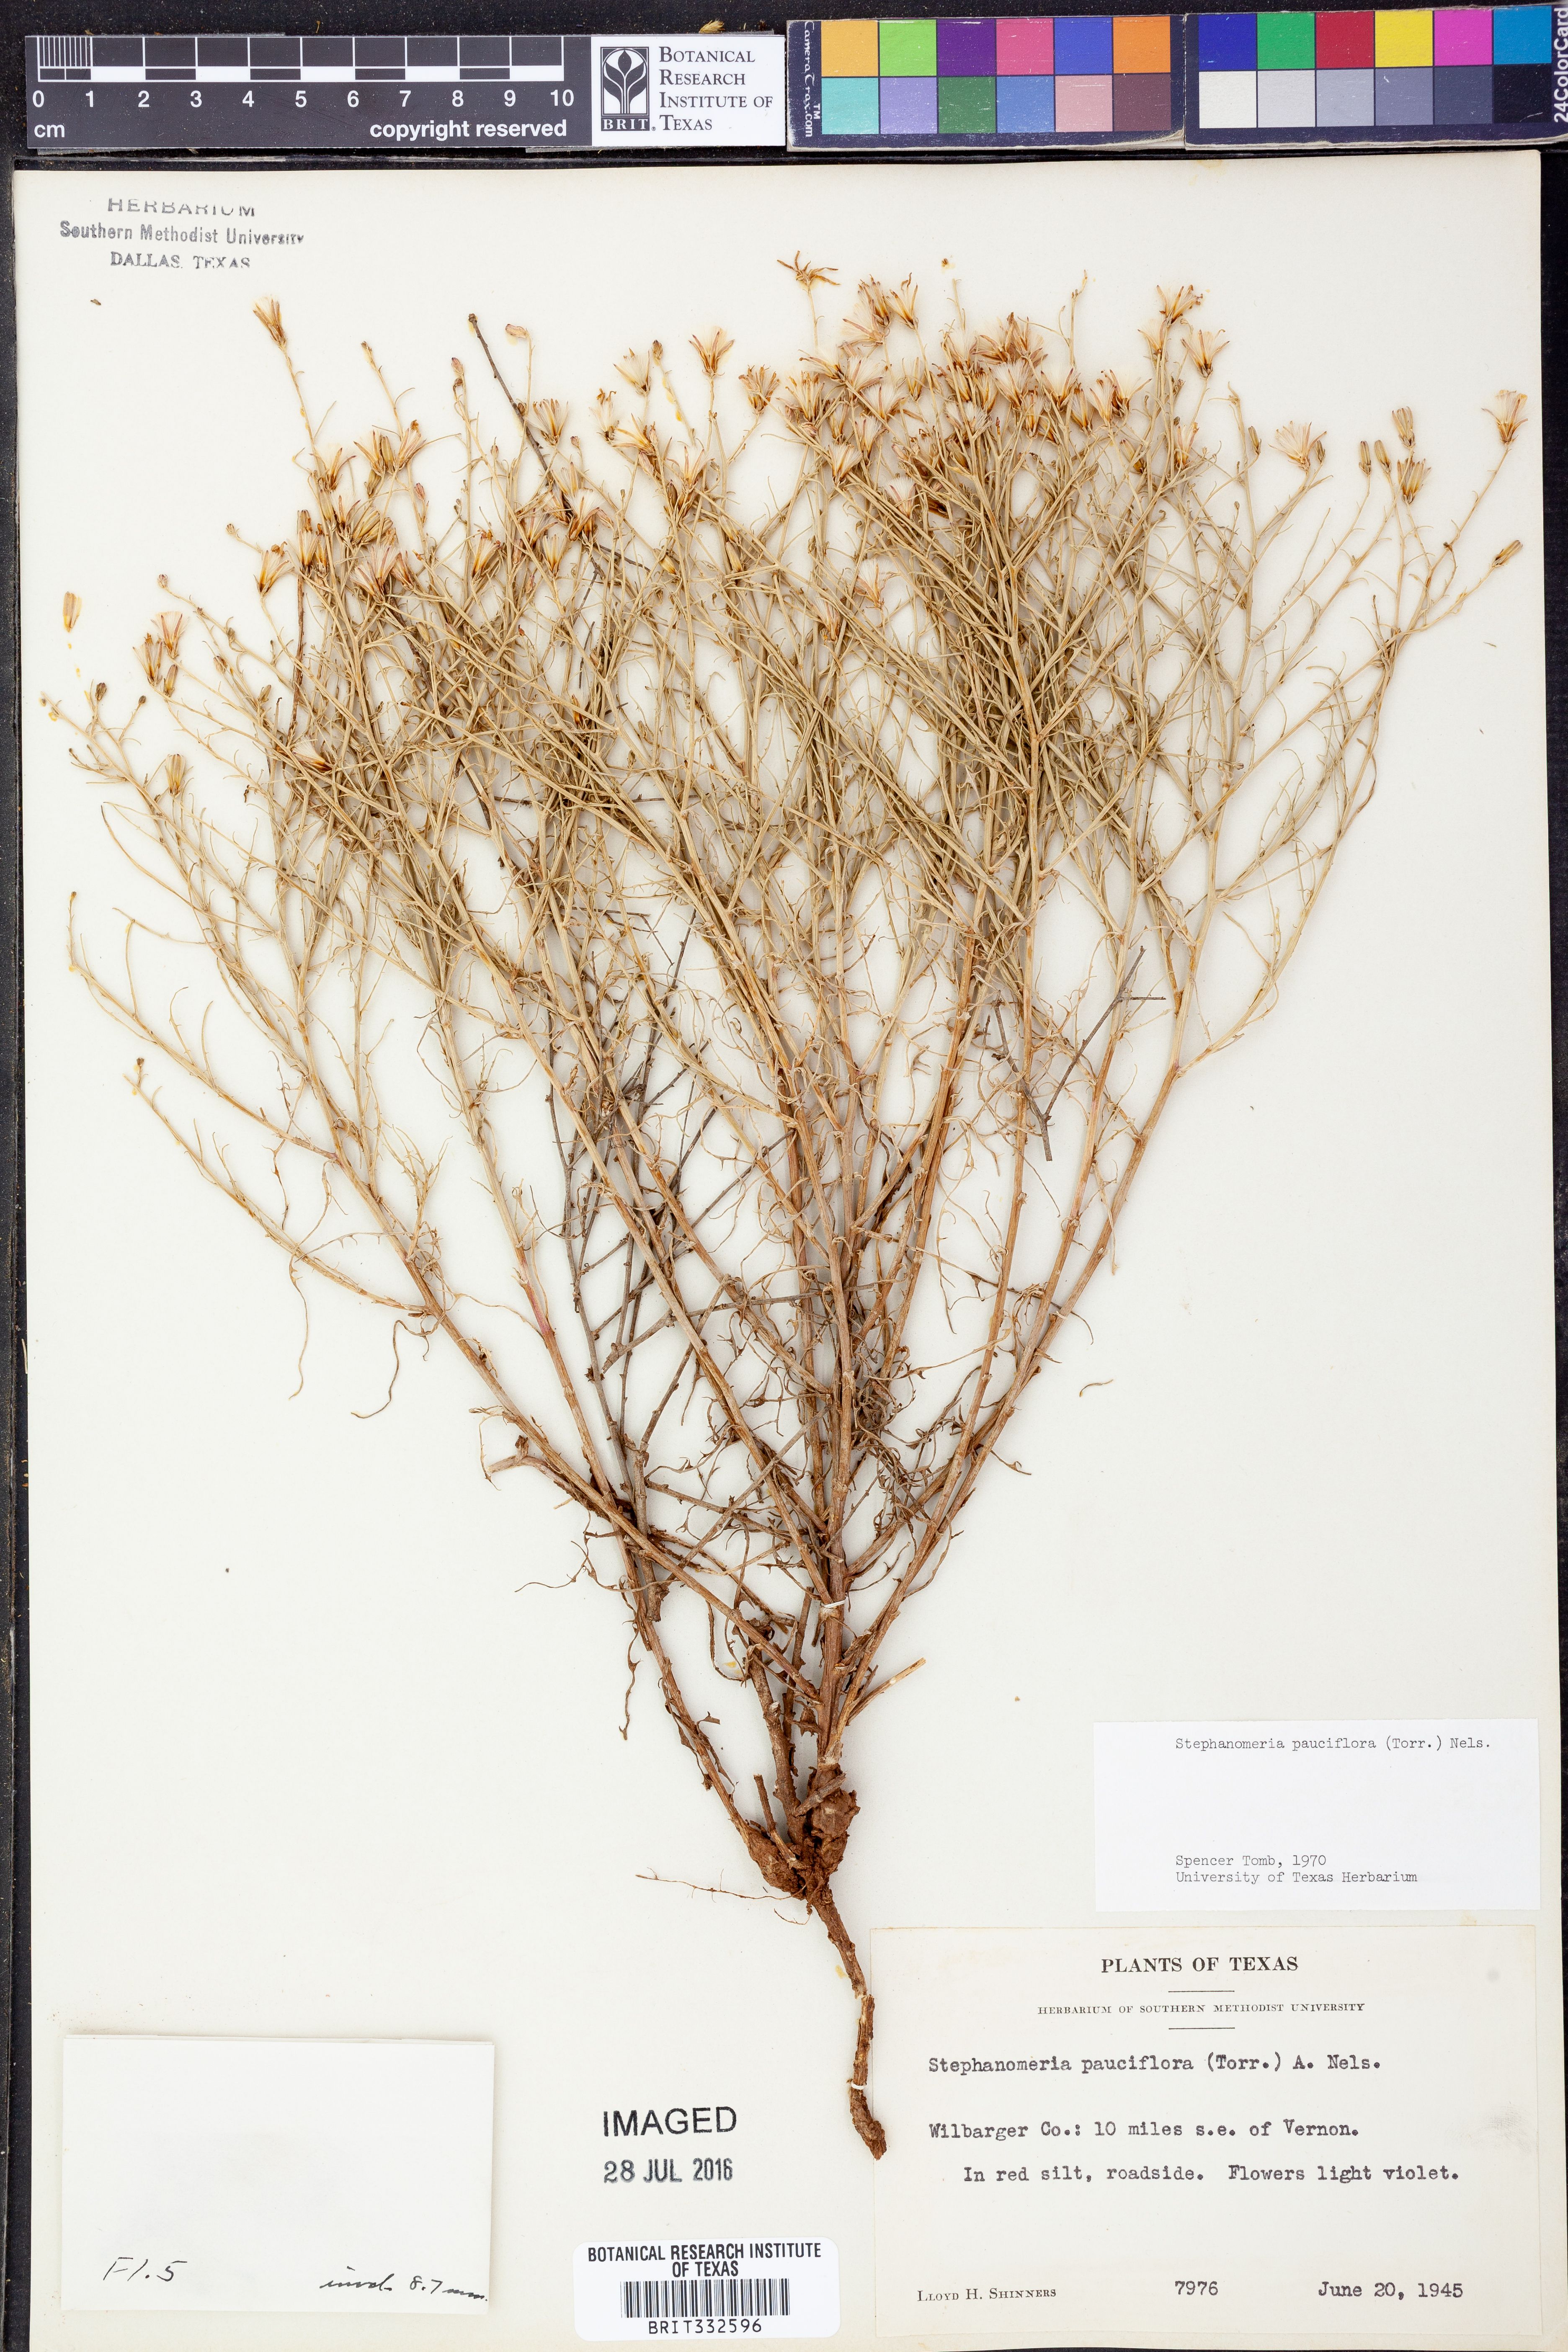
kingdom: Plantae
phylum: Tracheophyta
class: Magnoliopsida
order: Asterales
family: Asteraceae
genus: Stephanomeria
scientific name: Stephanomeria pauciflora
